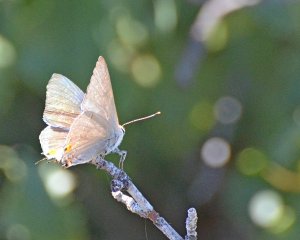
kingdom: Animalia
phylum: Arthropoda
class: Insecta
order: Lepidoptera
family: Lycaenidae
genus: Strymon
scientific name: Strymon melinus
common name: Gray Hairstreak
